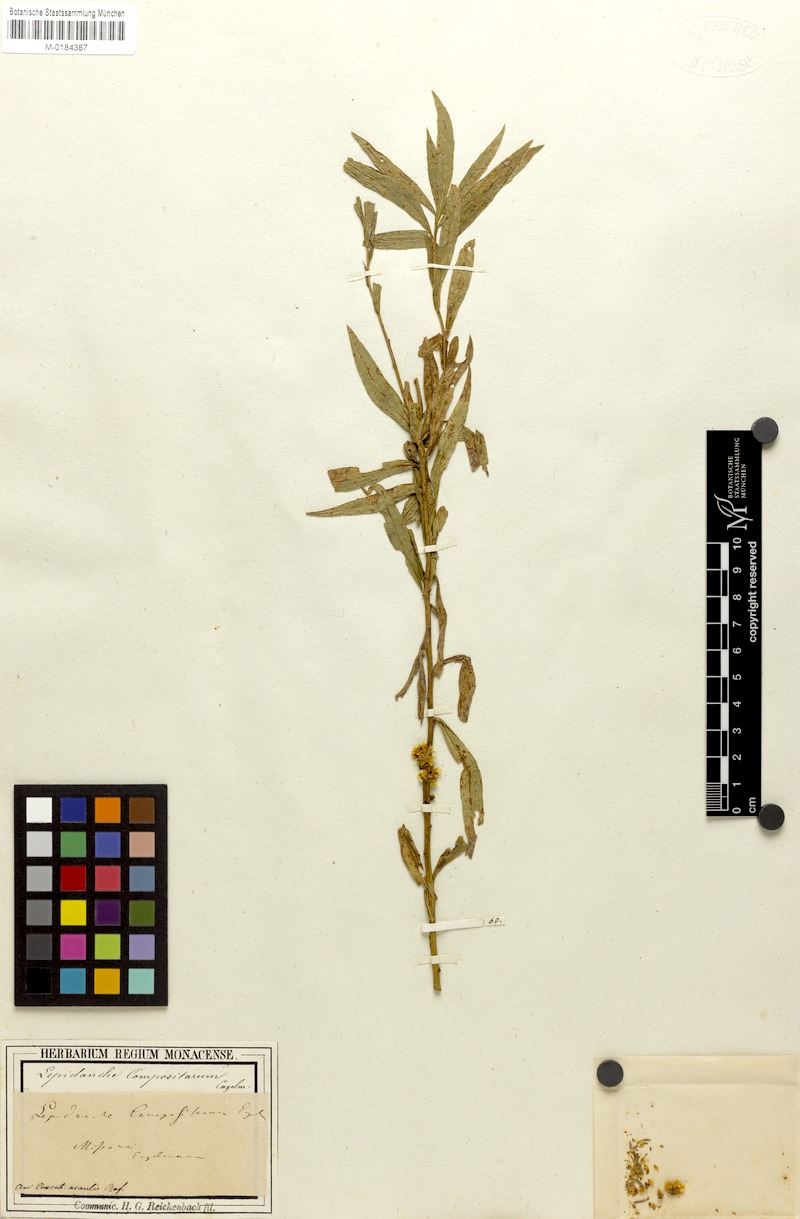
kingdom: Plantae
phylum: Tracheophyta
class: Magnoliopsida
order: Solanales
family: Convolvulaceae
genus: Cuscuta
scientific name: Cuscuta glomerata
